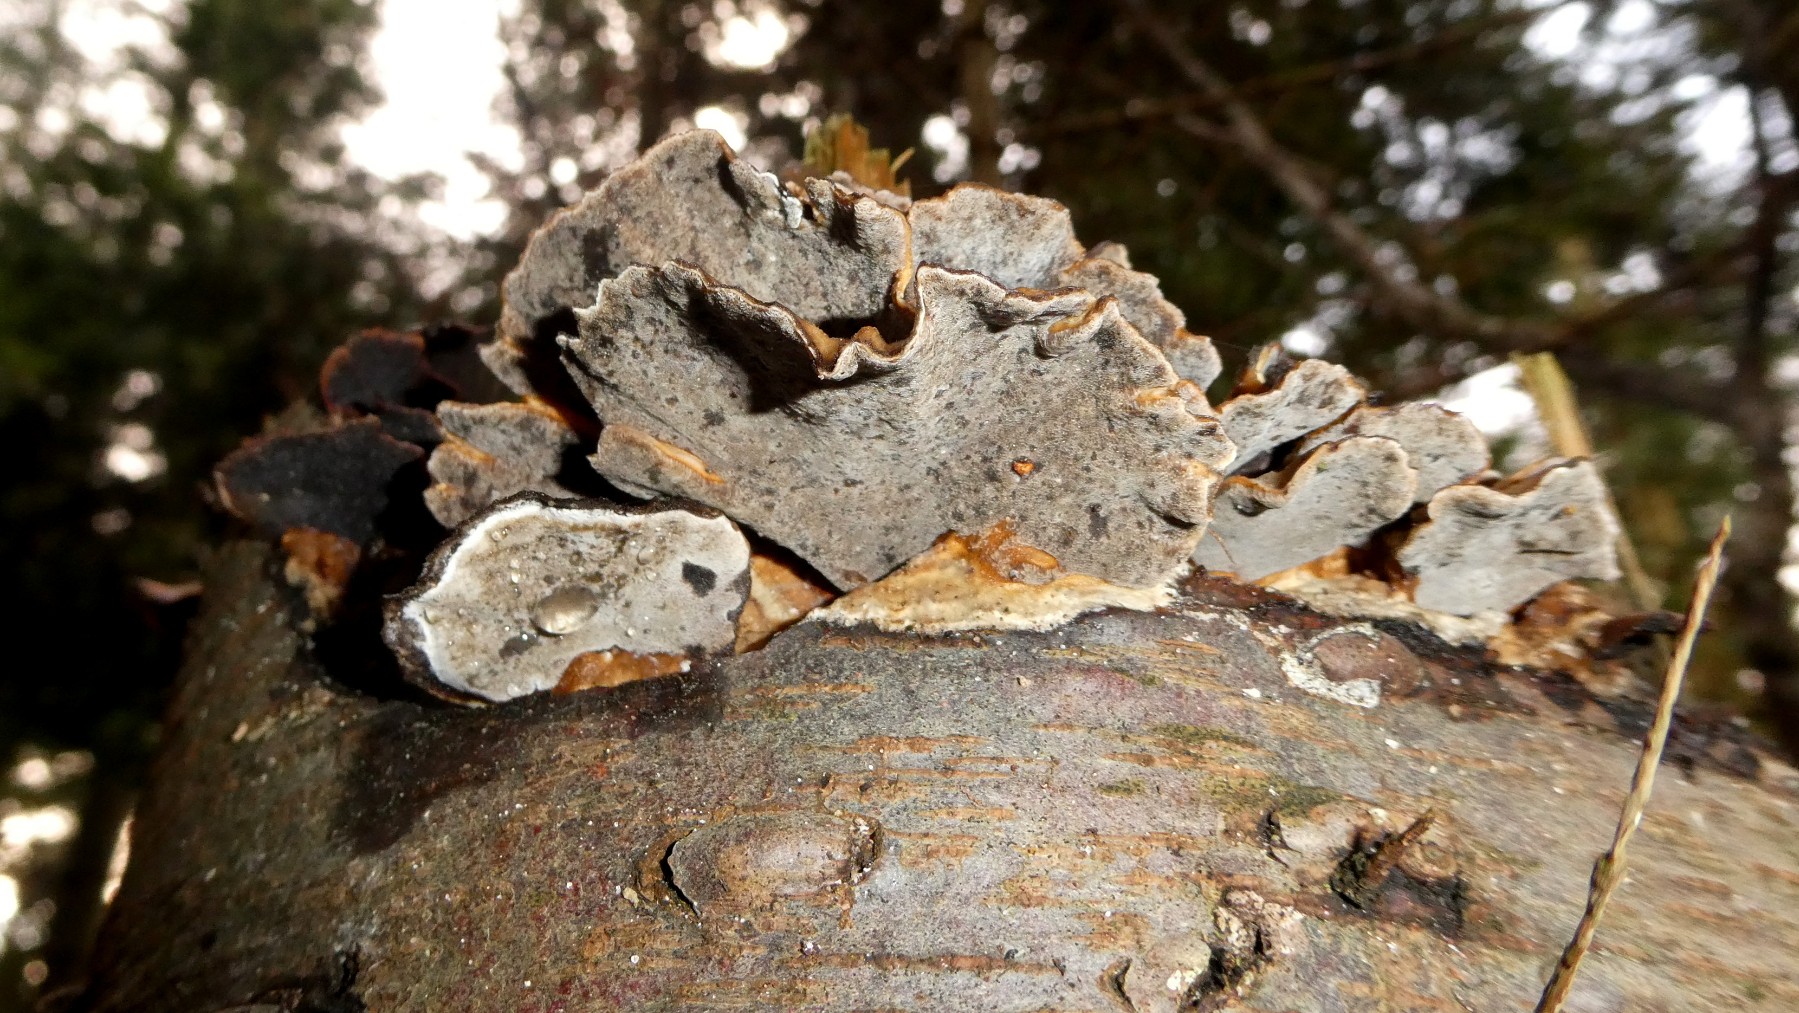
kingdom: Fungi
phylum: Basidiomycota
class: Agaricomycetes
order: Polyporales
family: Phanerochaetaceae
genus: Bjerkandera
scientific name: Bjerkandera adusta
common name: sveden sodporesvamp
